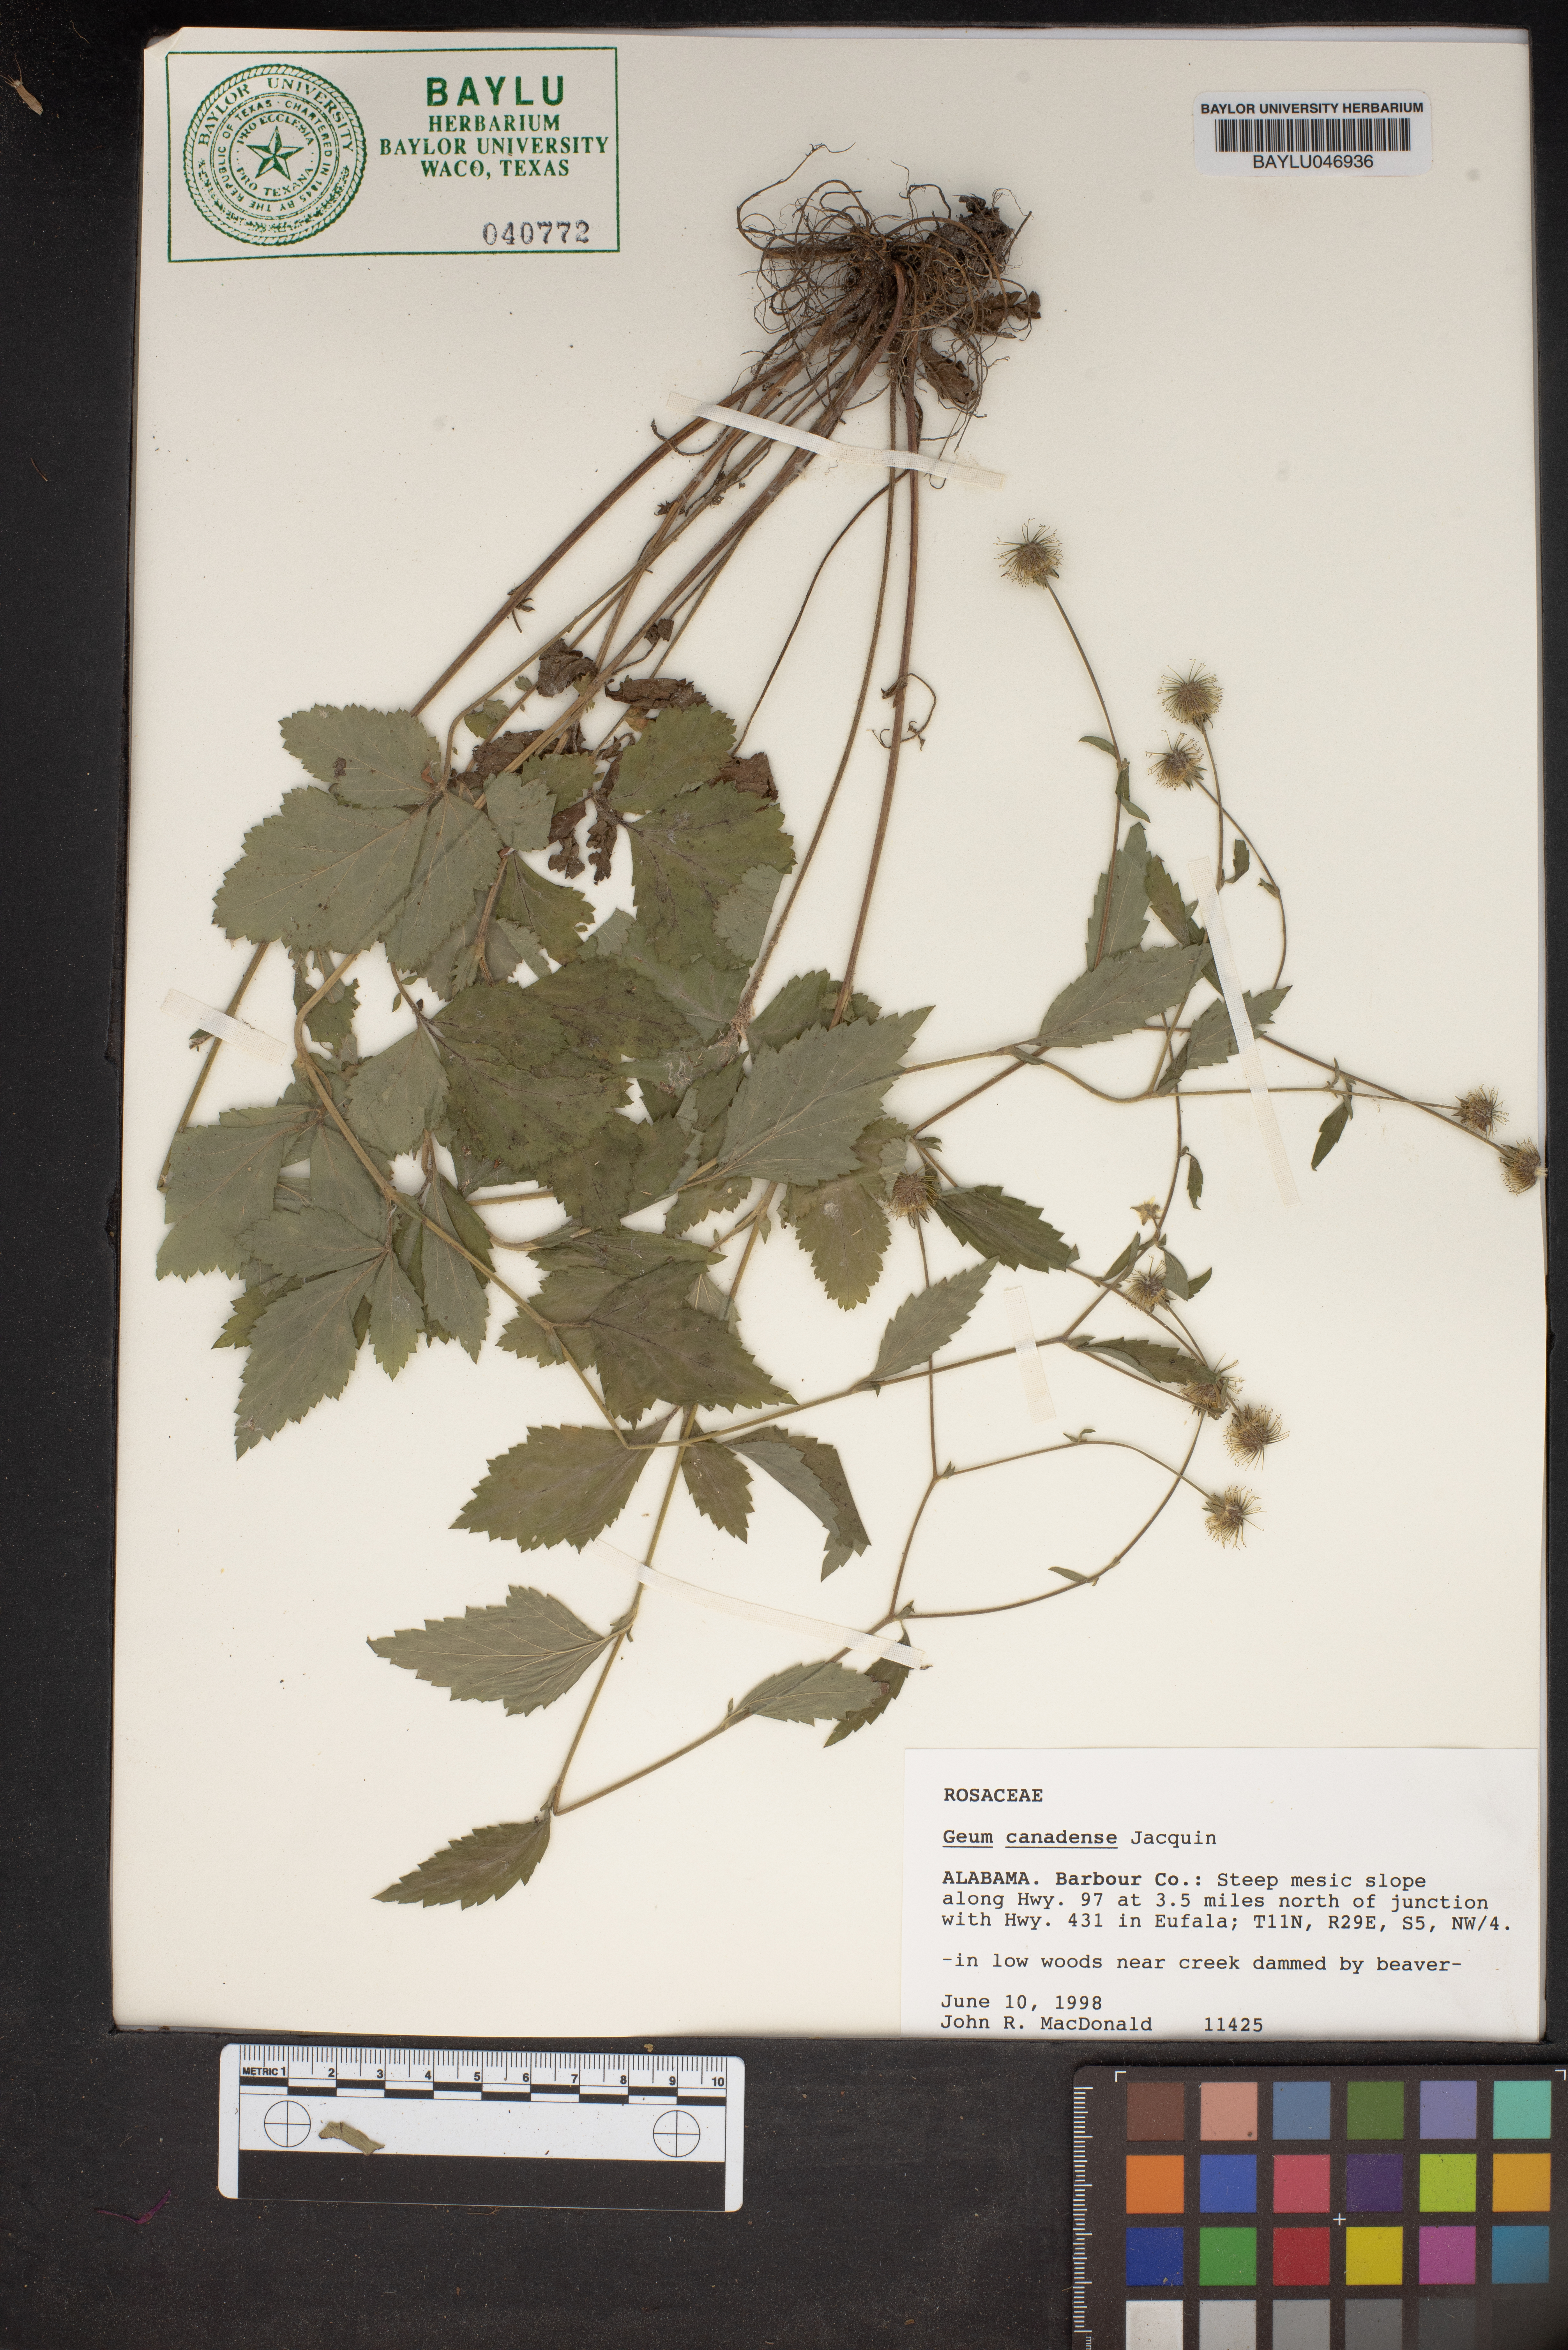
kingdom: Plantae
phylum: Tracheophyta
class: Magnoliopsida
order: Rosales
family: Rosaceae
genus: Geum
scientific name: Geum canadense
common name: White avens
